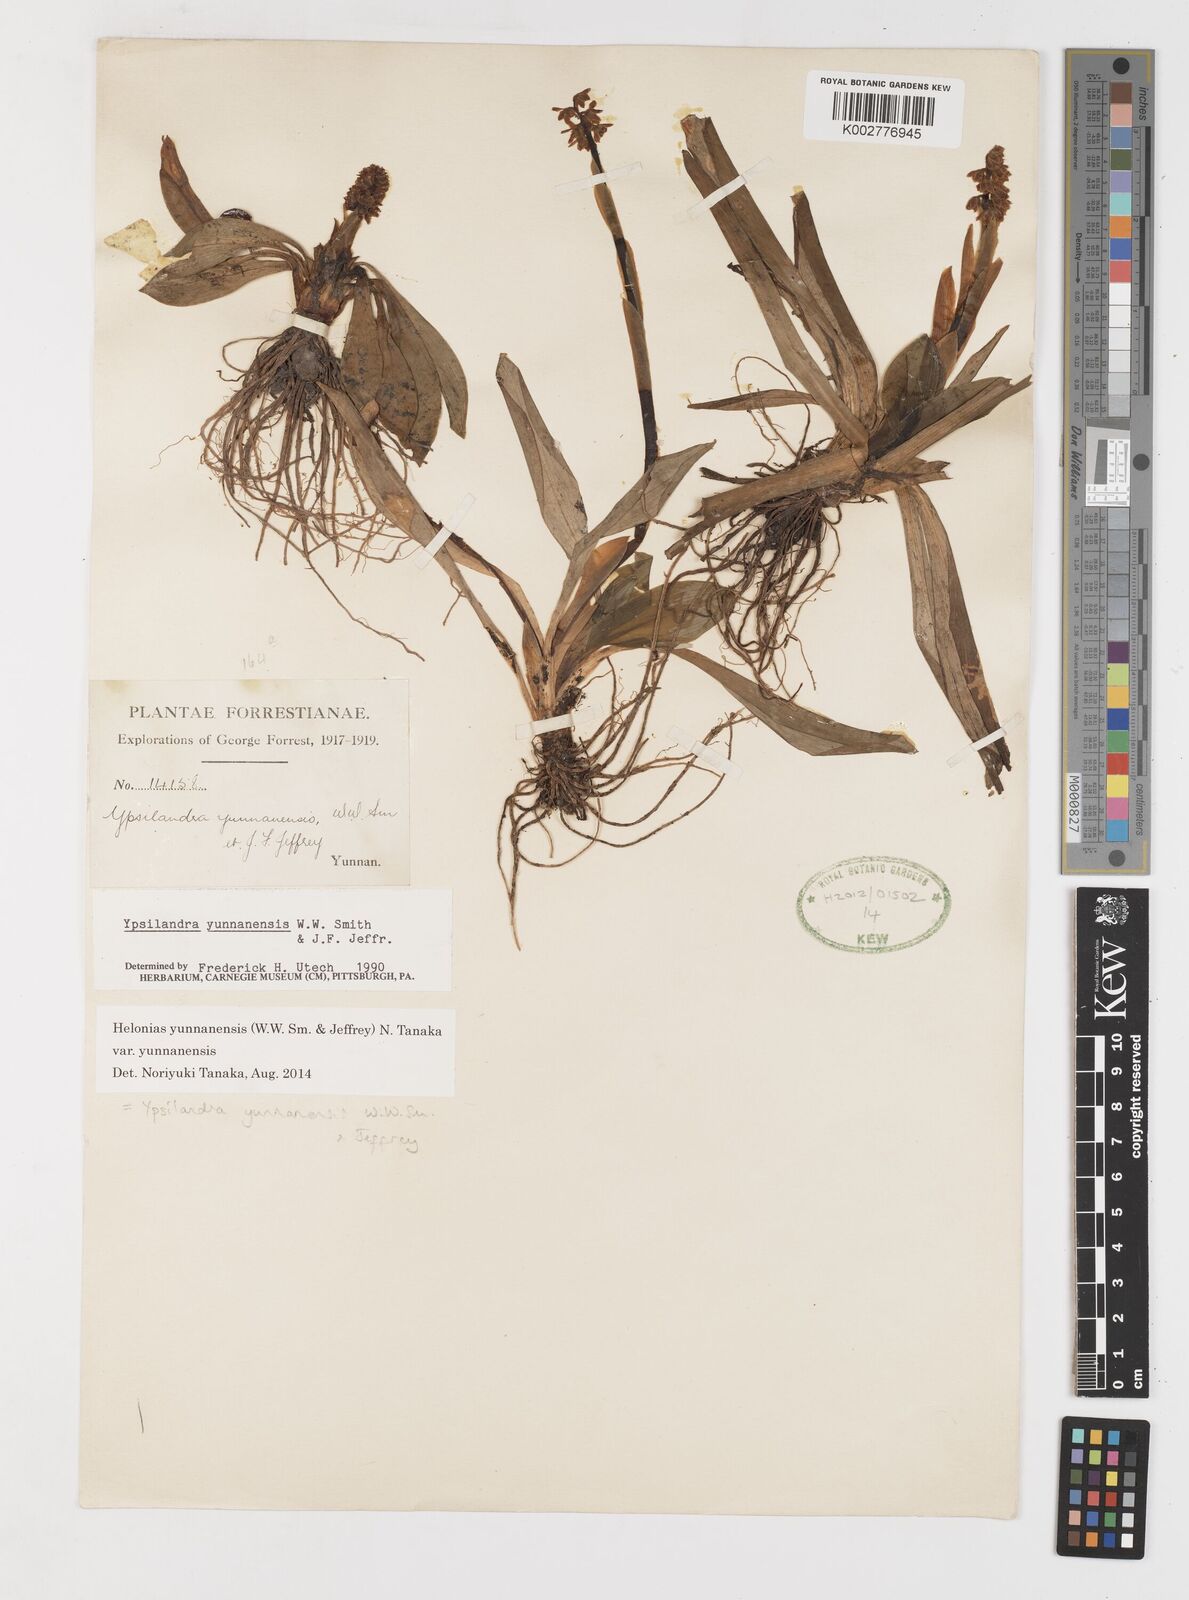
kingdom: Plantae
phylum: Tracheophyta
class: Liliopsida
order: Liliales
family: Melanthiaceae
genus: Helonias
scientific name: Helonias yunnanensis
